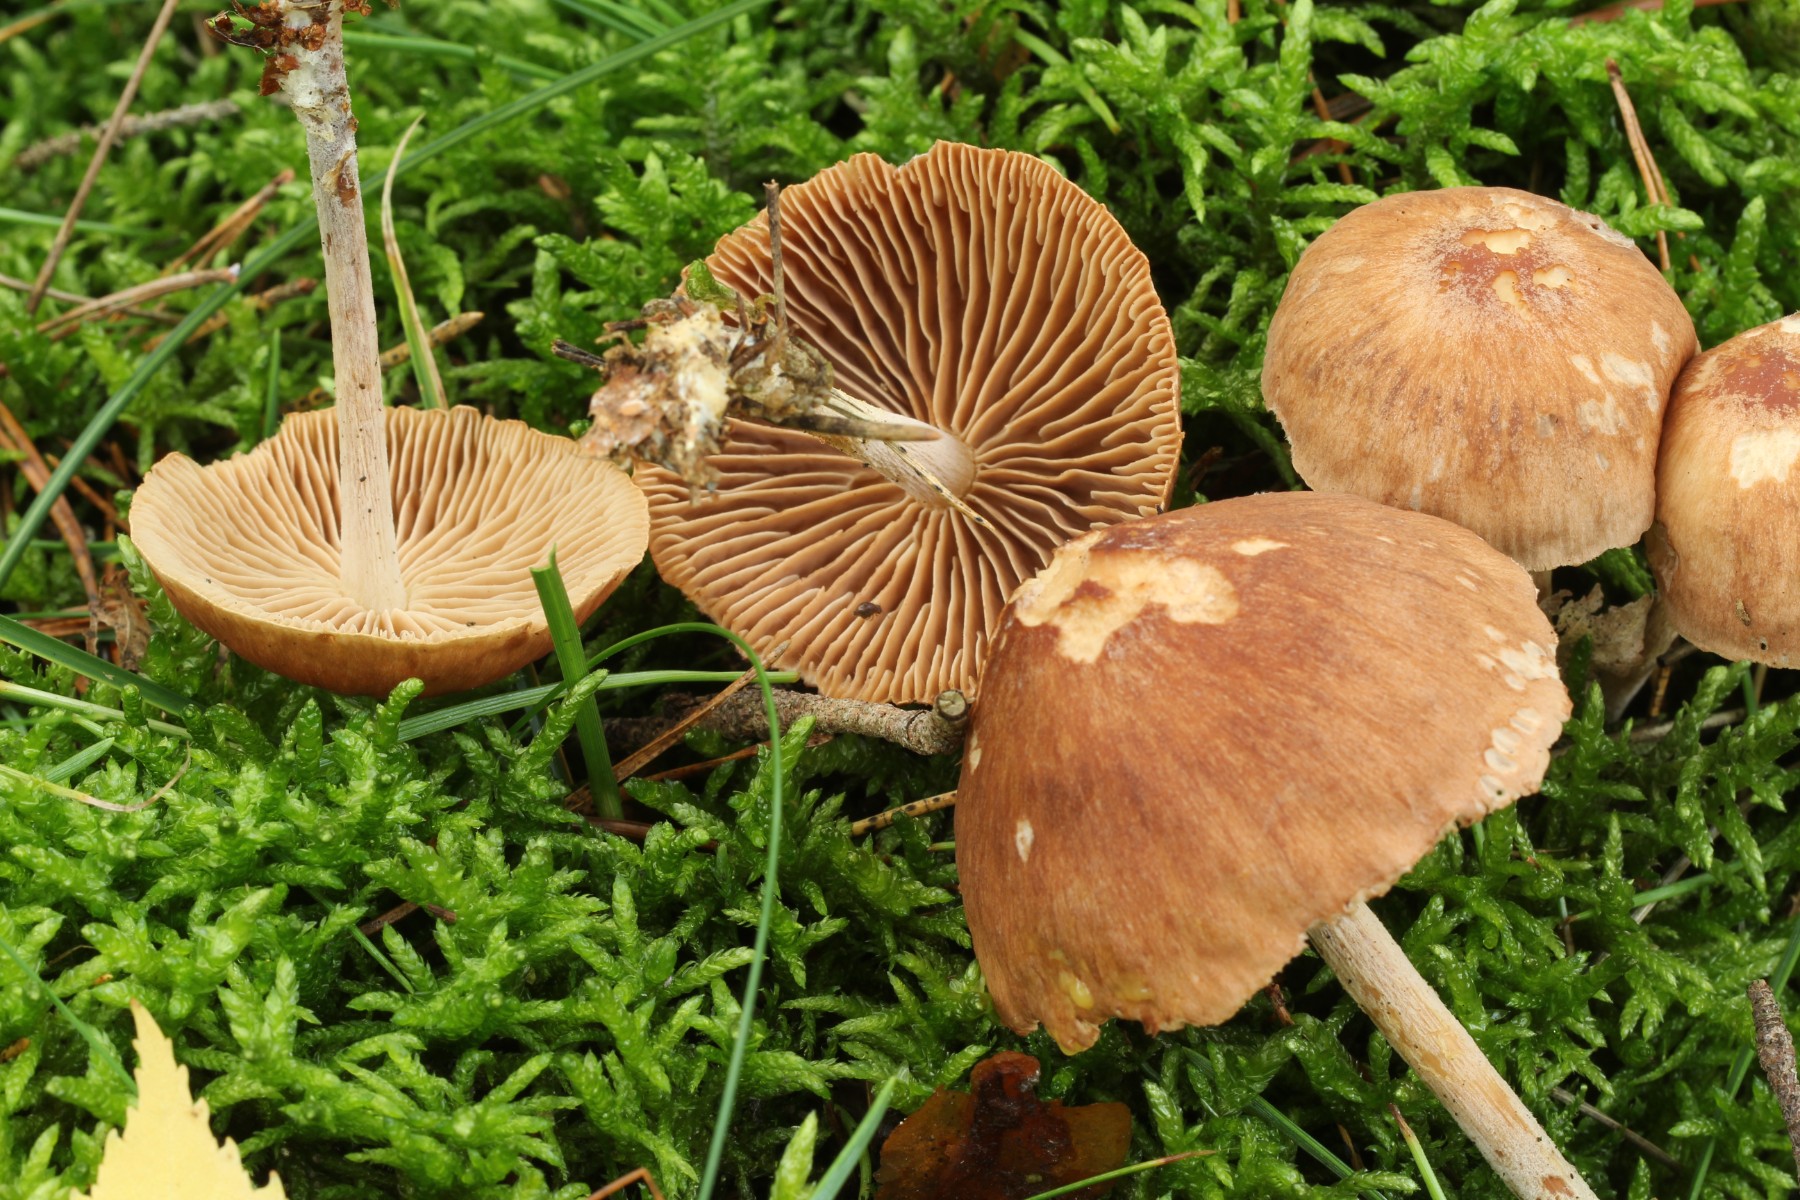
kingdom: Fungi
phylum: Basidiomycota
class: Agaricomycetes
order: Agaricales
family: Omphalotaceae
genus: Collybiopsis
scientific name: Collybiopsis peronata
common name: bestøvlet fladhat
